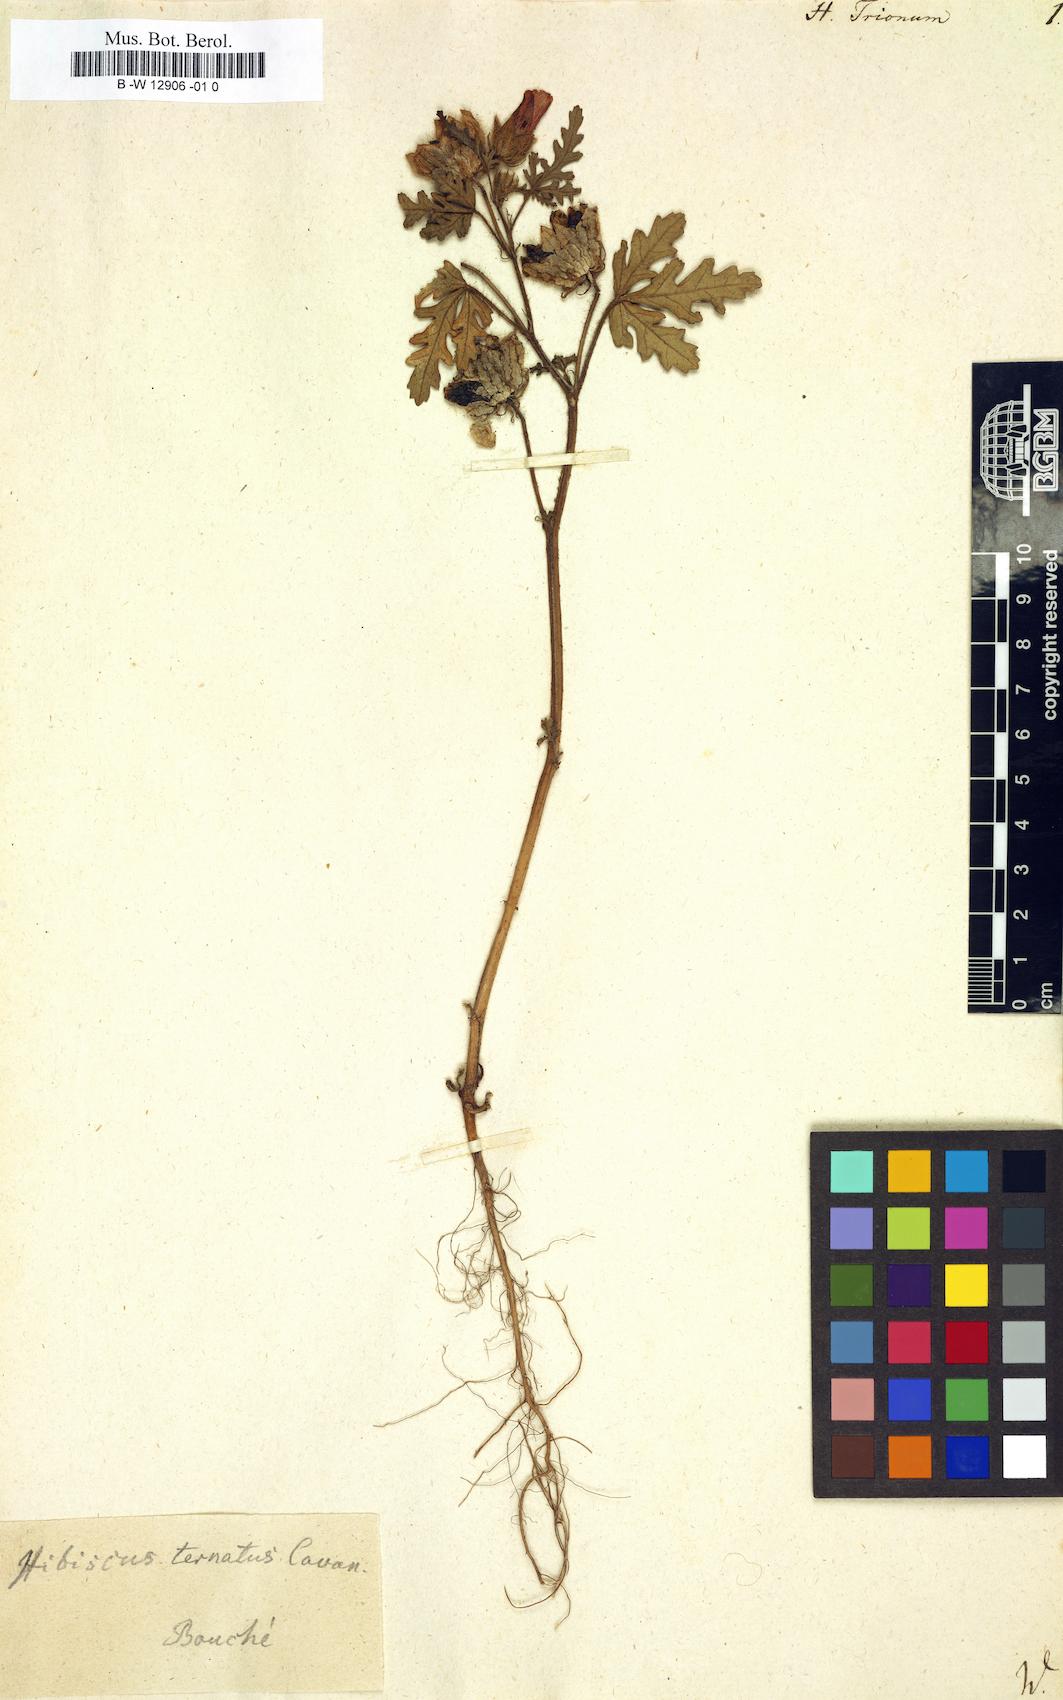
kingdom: Plantae
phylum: Tracheophyta
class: Magnoliopsida
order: Malvales
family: Malvaceae
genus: Hibiscus
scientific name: Hibiscus trionum
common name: Bladder ketmia
